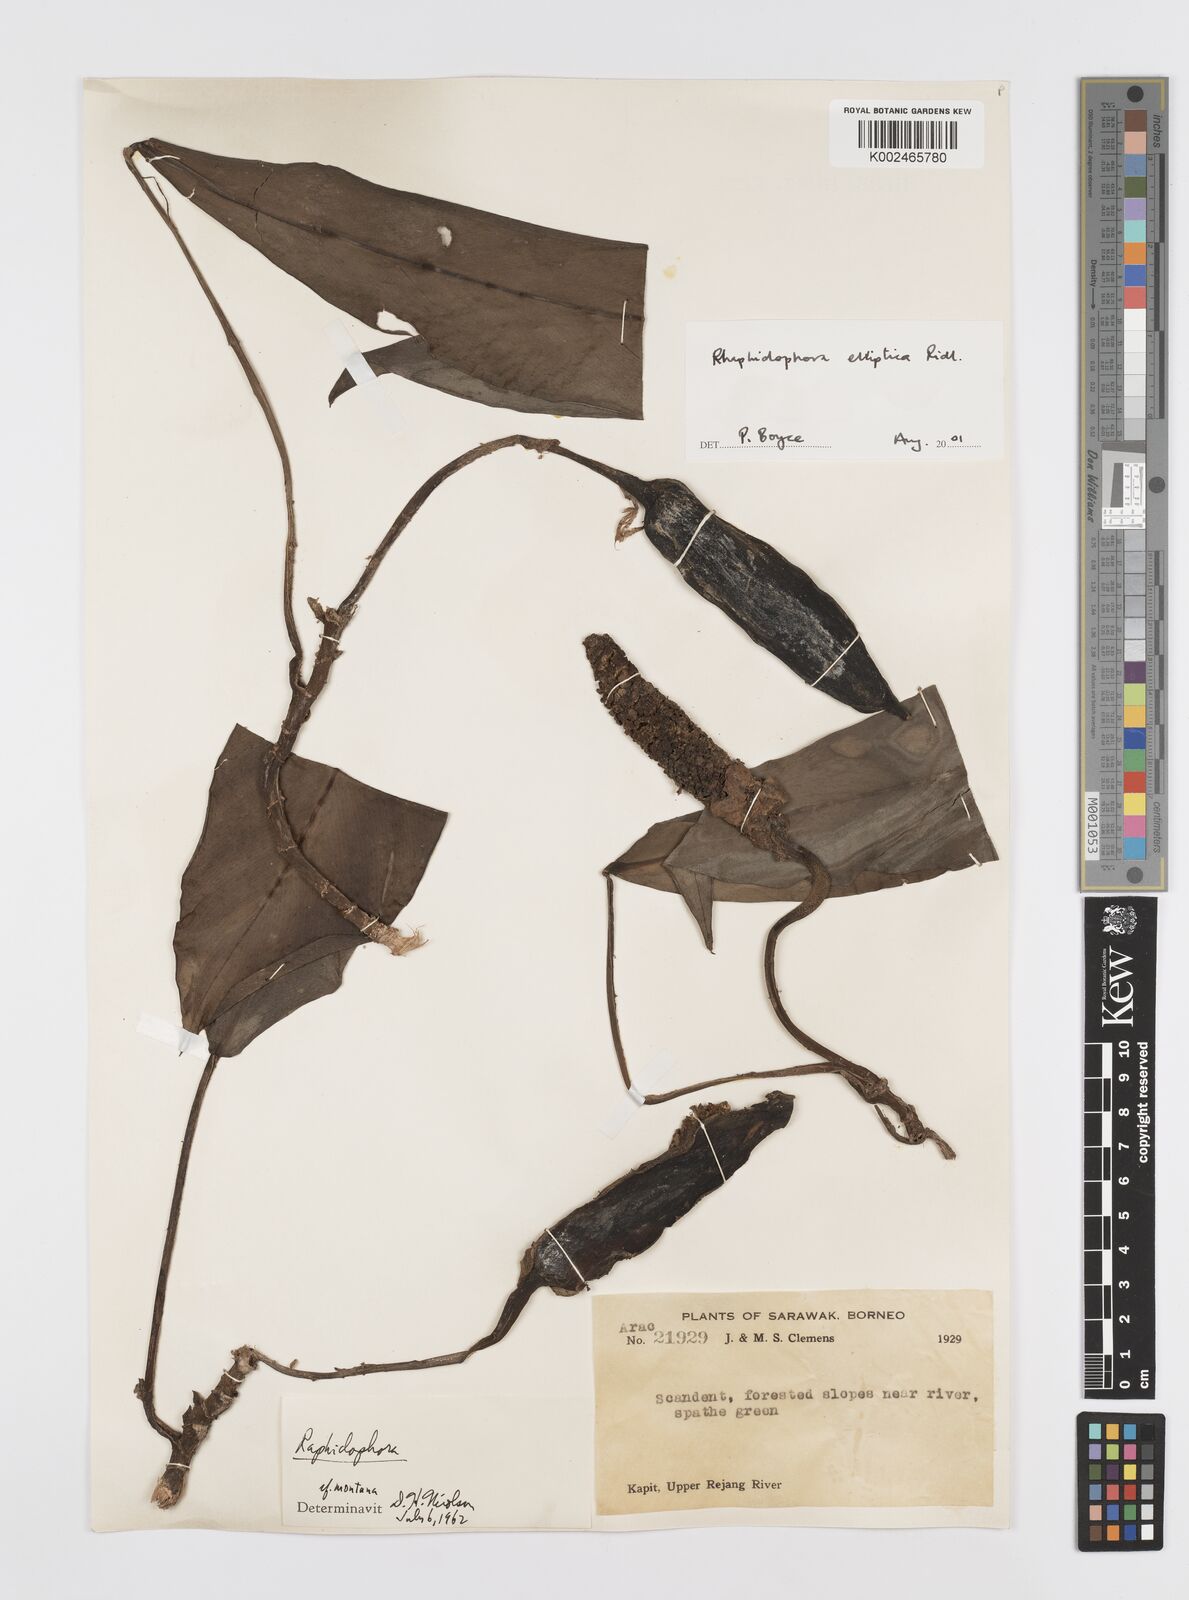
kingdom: Plantae
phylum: Tracheophyta
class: Liliopsida
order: Alismatales
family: Araceae
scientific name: Araceae
